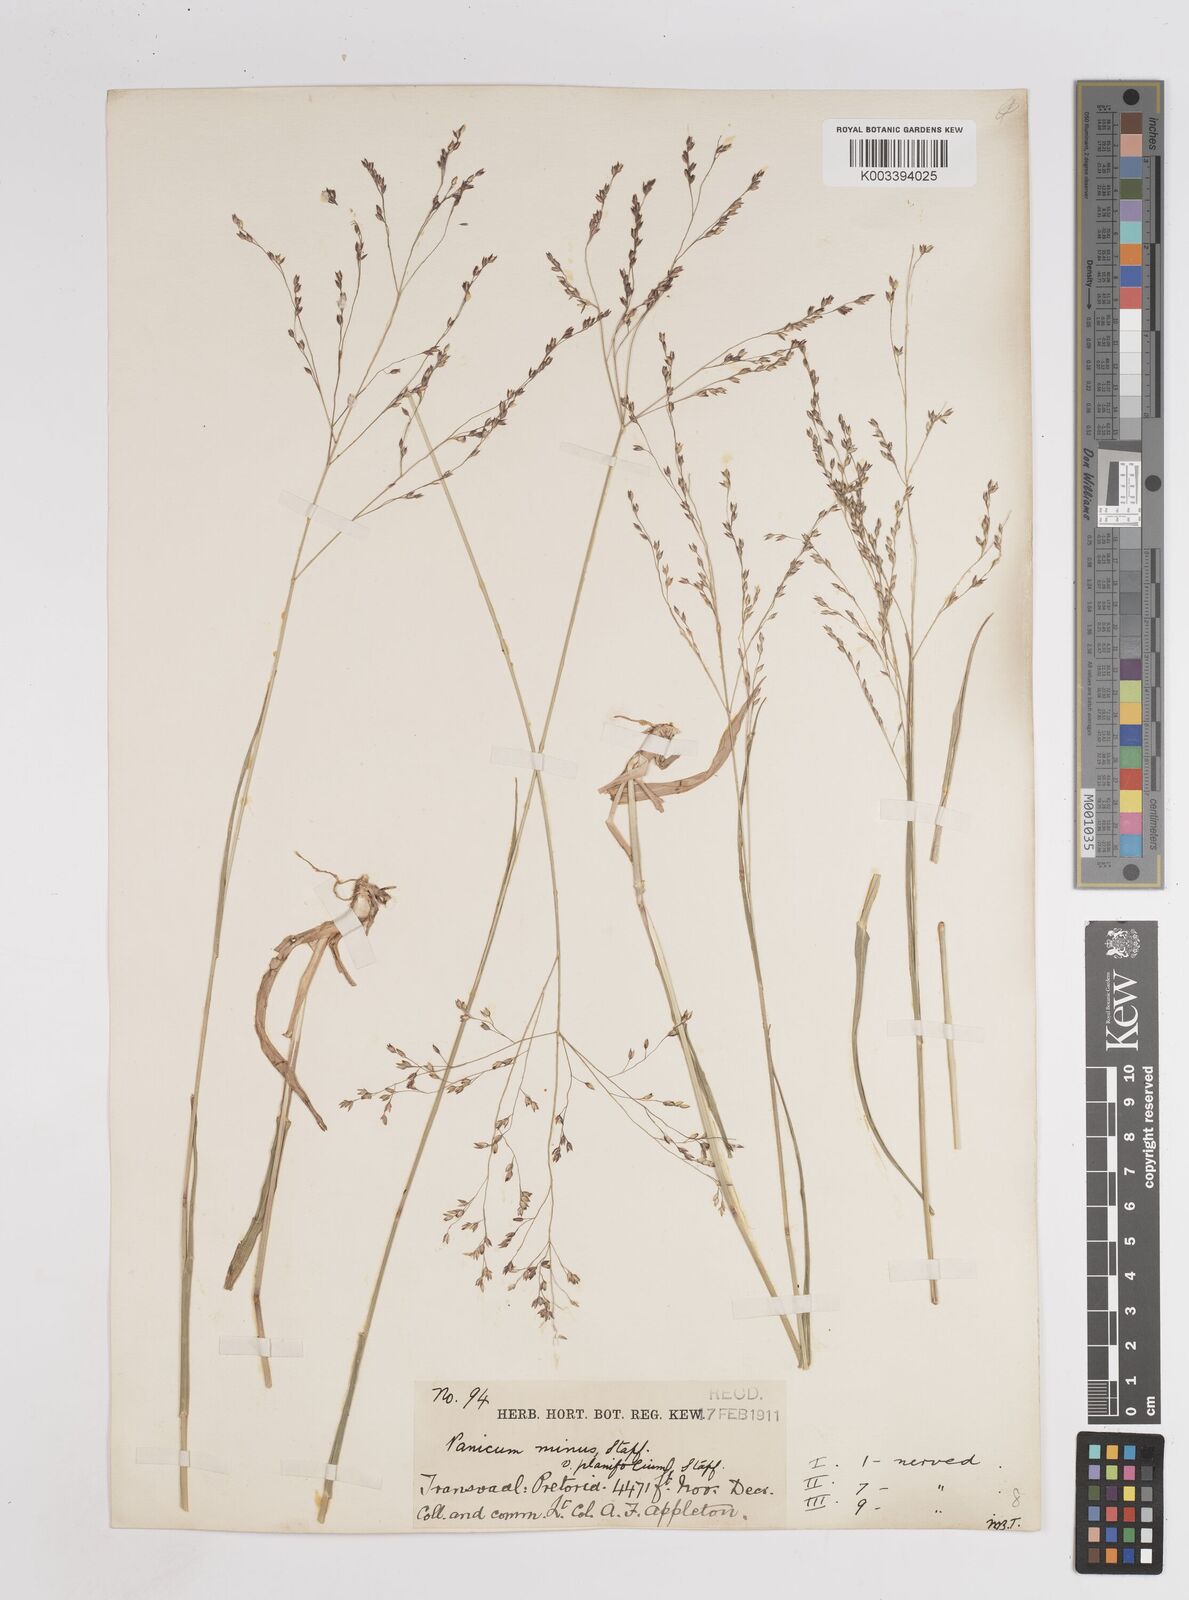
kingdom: Plantae
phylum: Tracheophyta
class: Liliopsida
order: Poales
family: Poaceae
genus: Panicum
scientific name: Panicum
